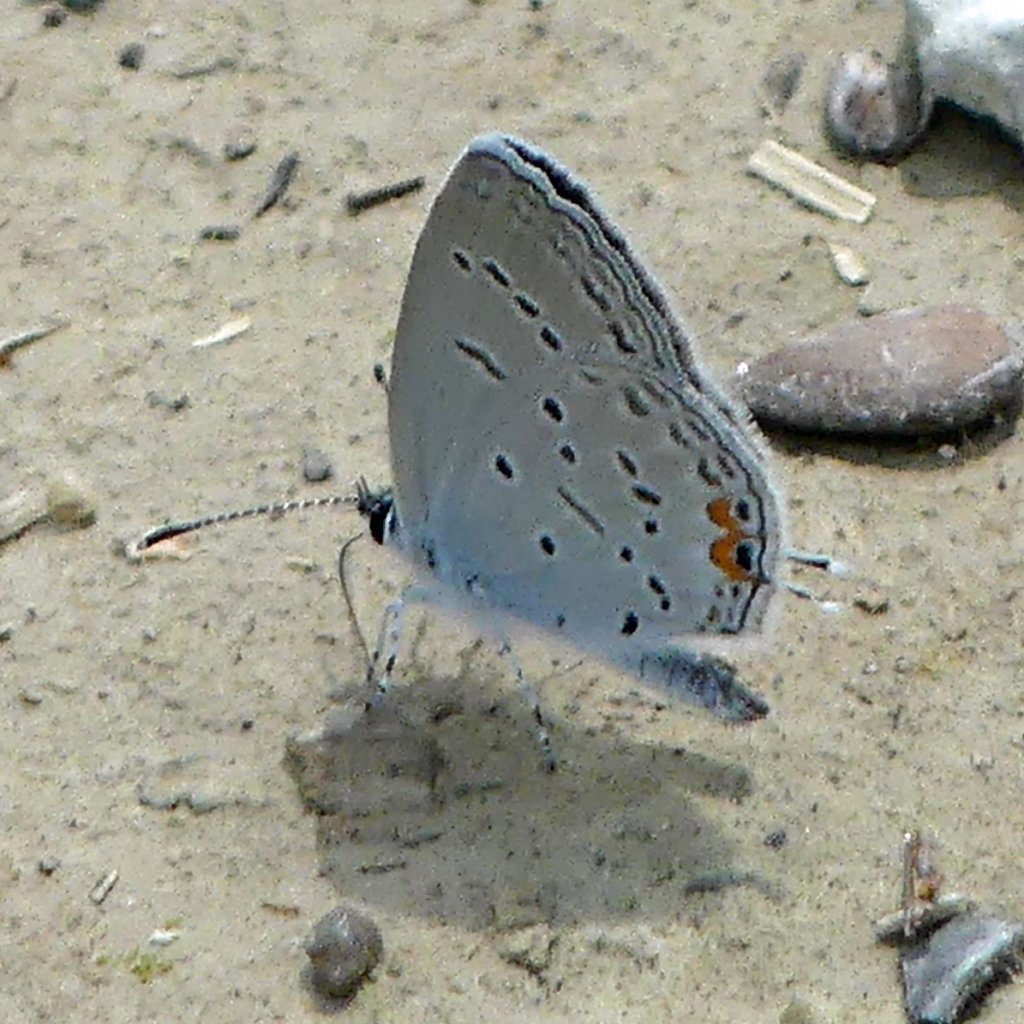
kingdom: Animalia
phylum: Arthropoda
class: Insecta
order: Lepidoptera
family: Lycaenidae
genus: Elkalyce
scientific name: Elkalyce comyntas
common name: Eastern Tailed-Blue
